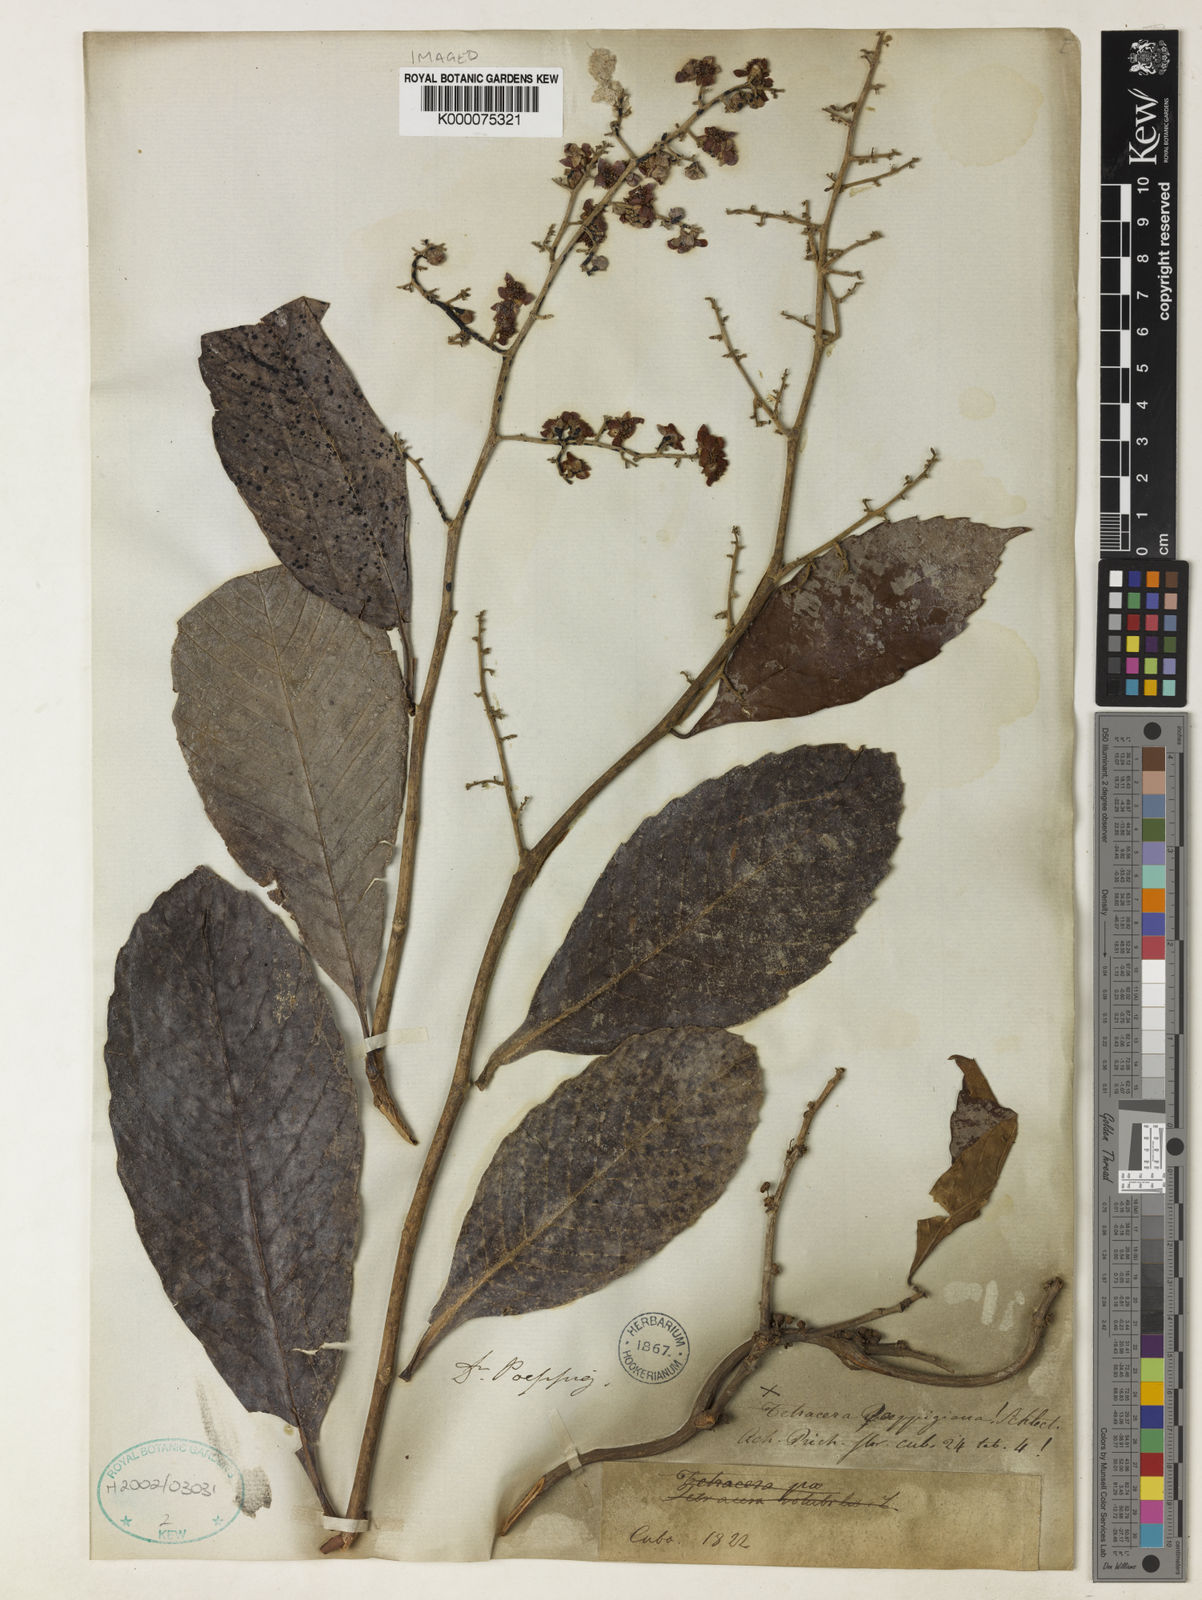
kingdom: Plantae
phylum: Tracheophyta
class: Magnoliopsida
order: Dilleniales
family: Dilleniaceae
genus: Tetracera
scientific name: Tetracera volubilis
